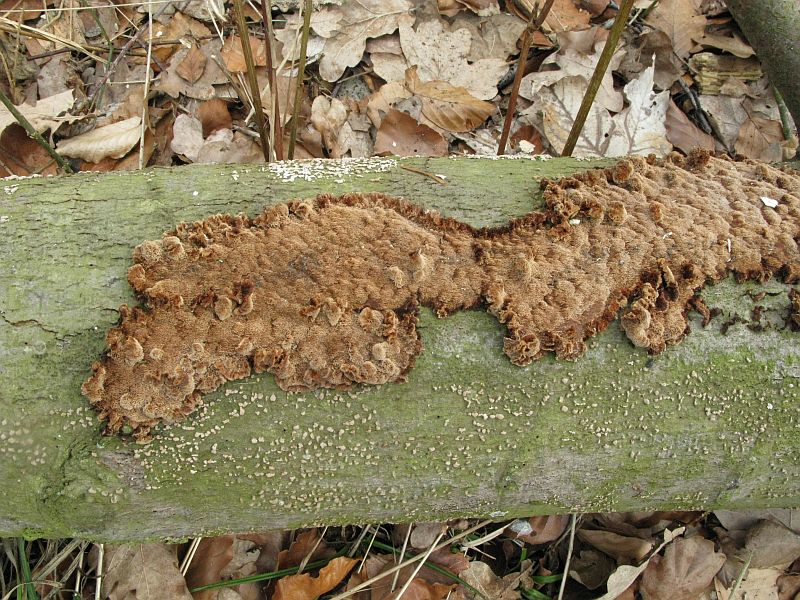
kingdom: Fungi
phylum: Basidiomycota
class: Agaricomycetes
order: Hymenochaetales
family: Hymenochaetaceae
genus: Mensularia
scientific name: Mensularia nodulosa
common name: bøge-spejlporesvamp
